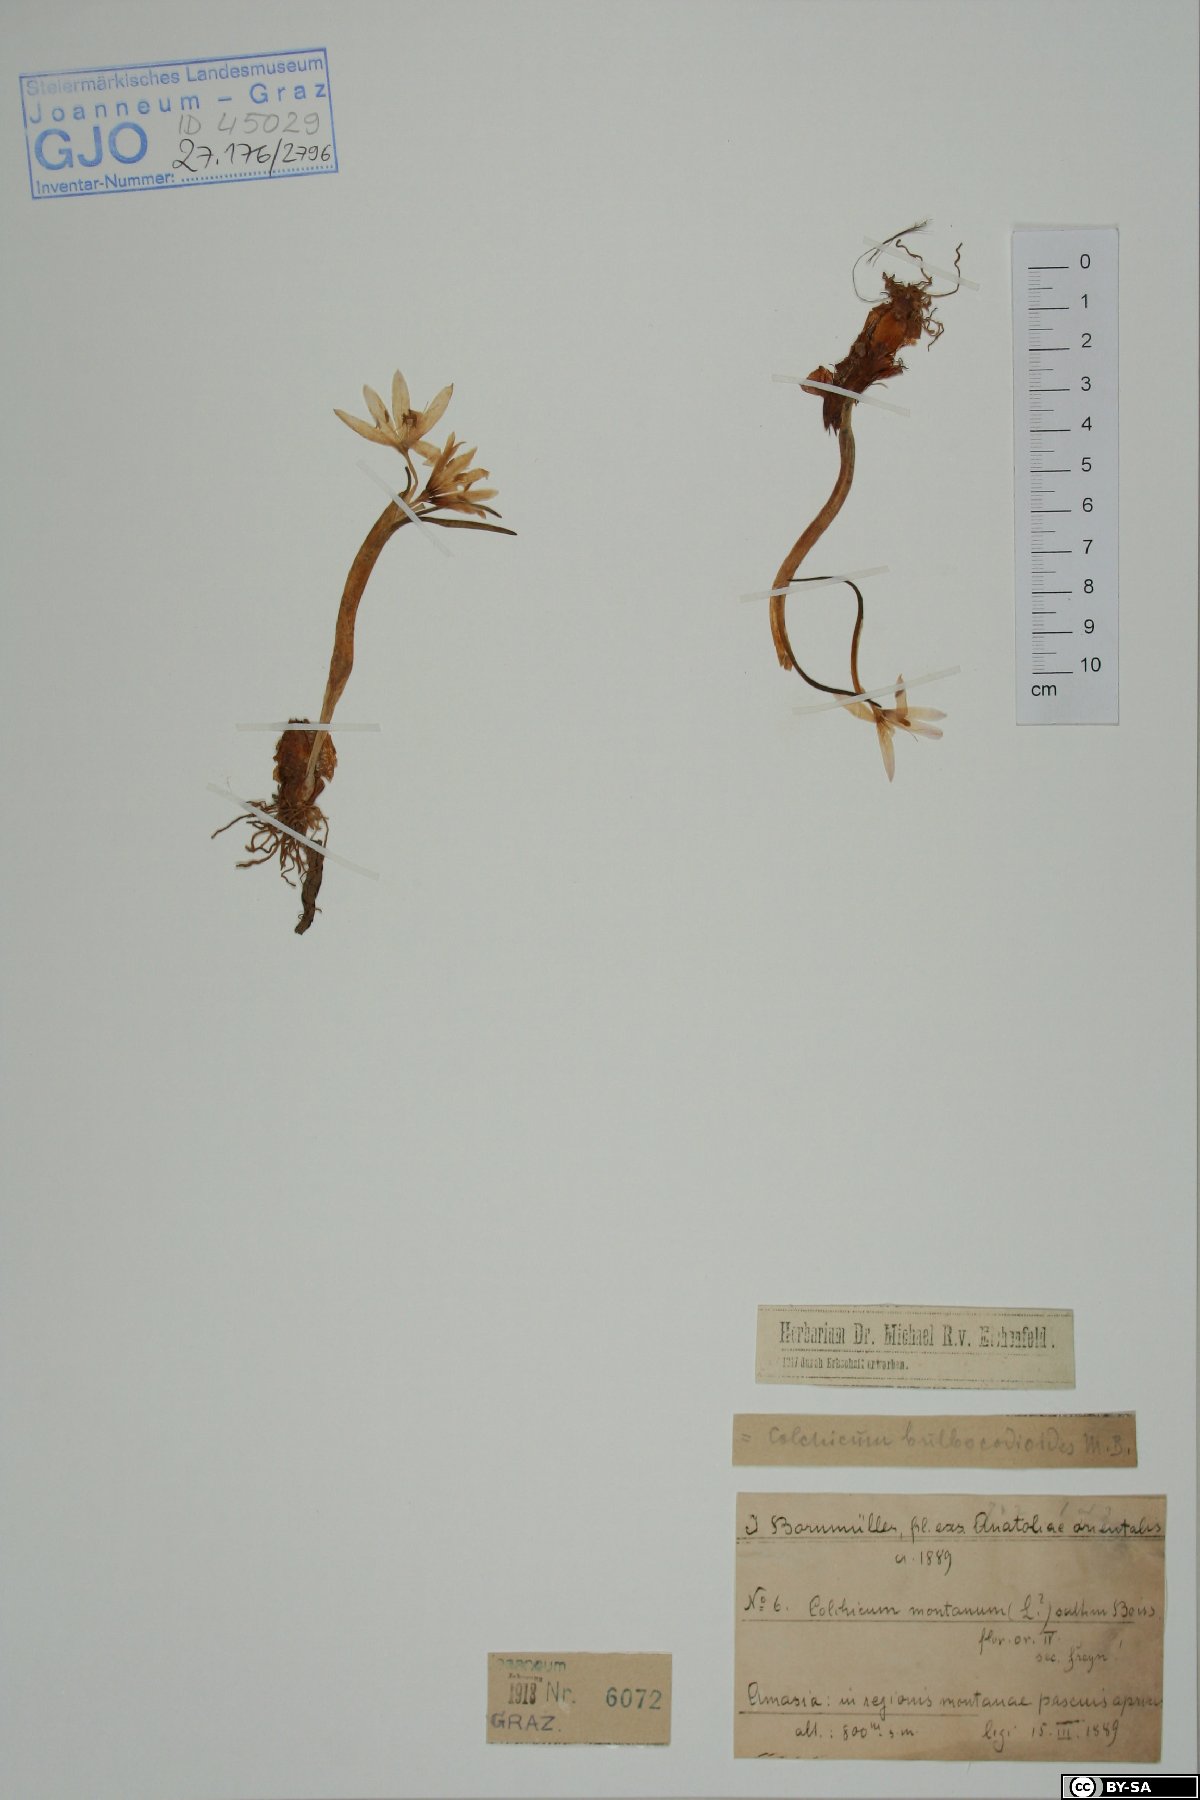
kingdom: Plantae
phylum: Tracheophyta
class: Liliopsida
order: Liliales
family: Colchicaceae
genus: Colchicum
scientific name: Colchicum montanum
